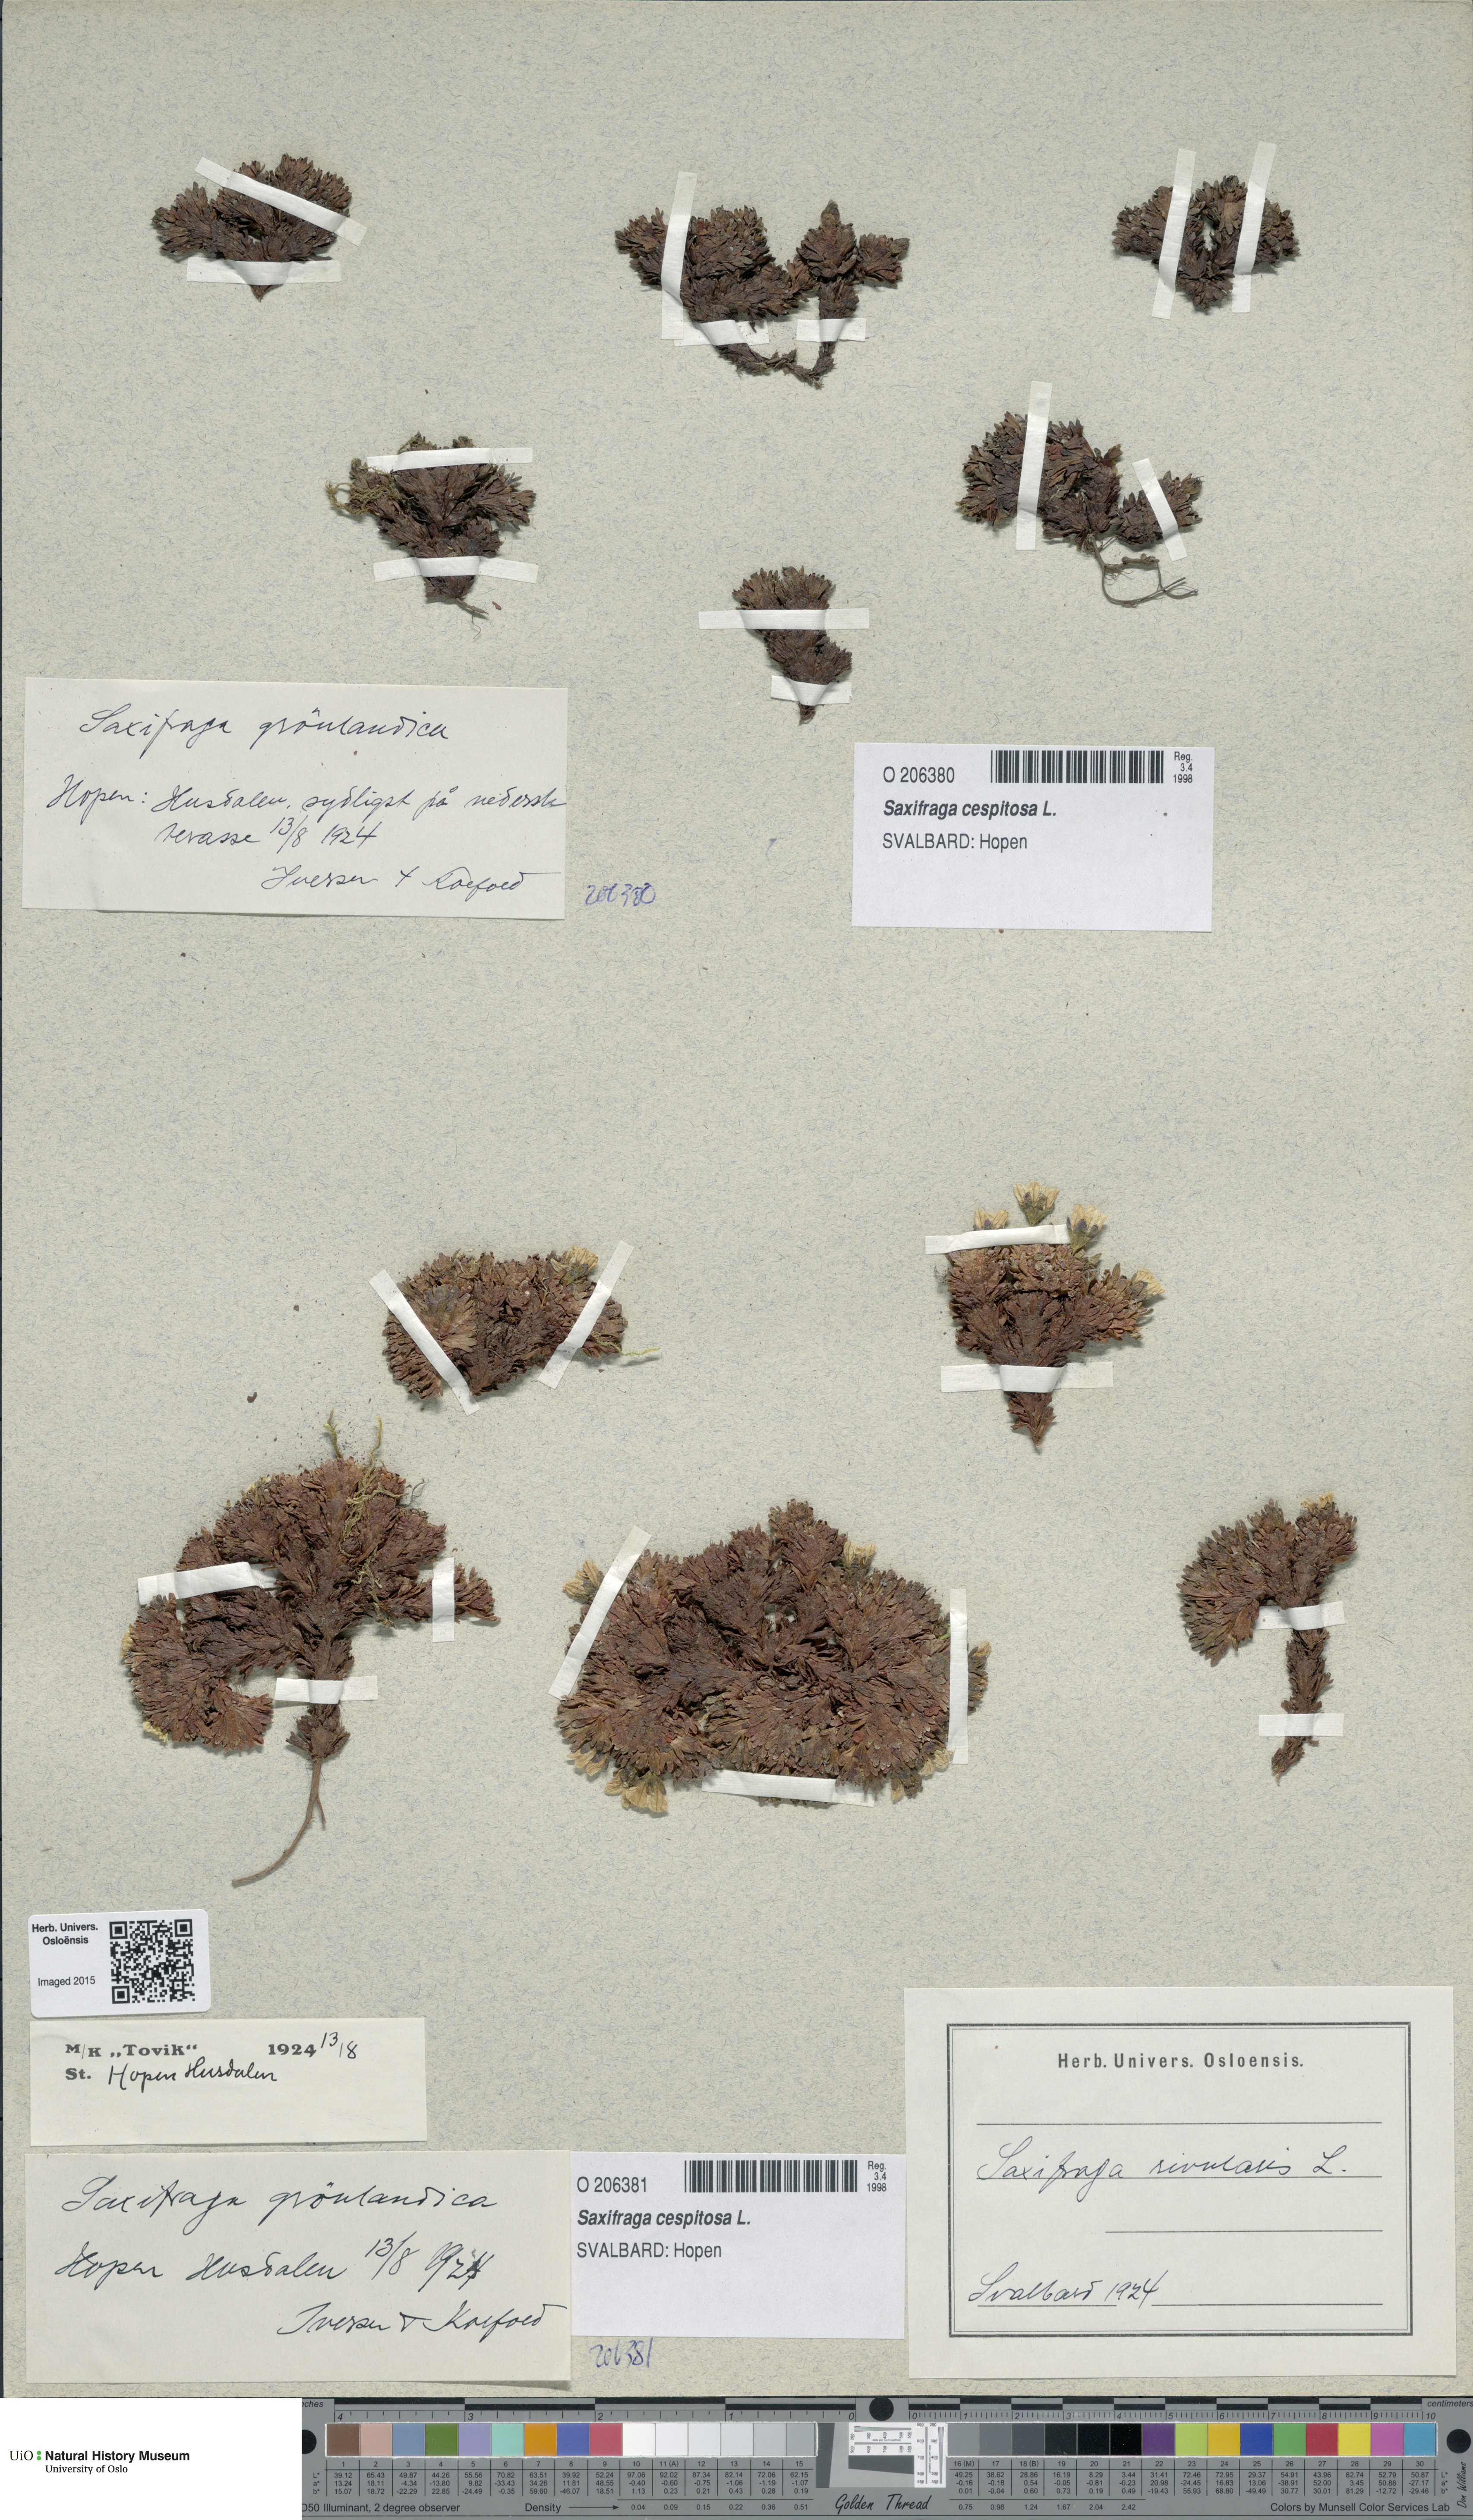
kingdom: Plantae
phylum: Tracheophyta
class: Magnoliopsida
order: Saxifragales
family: Saxifragaceae
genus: Saxifraga
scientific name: Saxifraga cespitosa
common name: Tufted saxifrage
